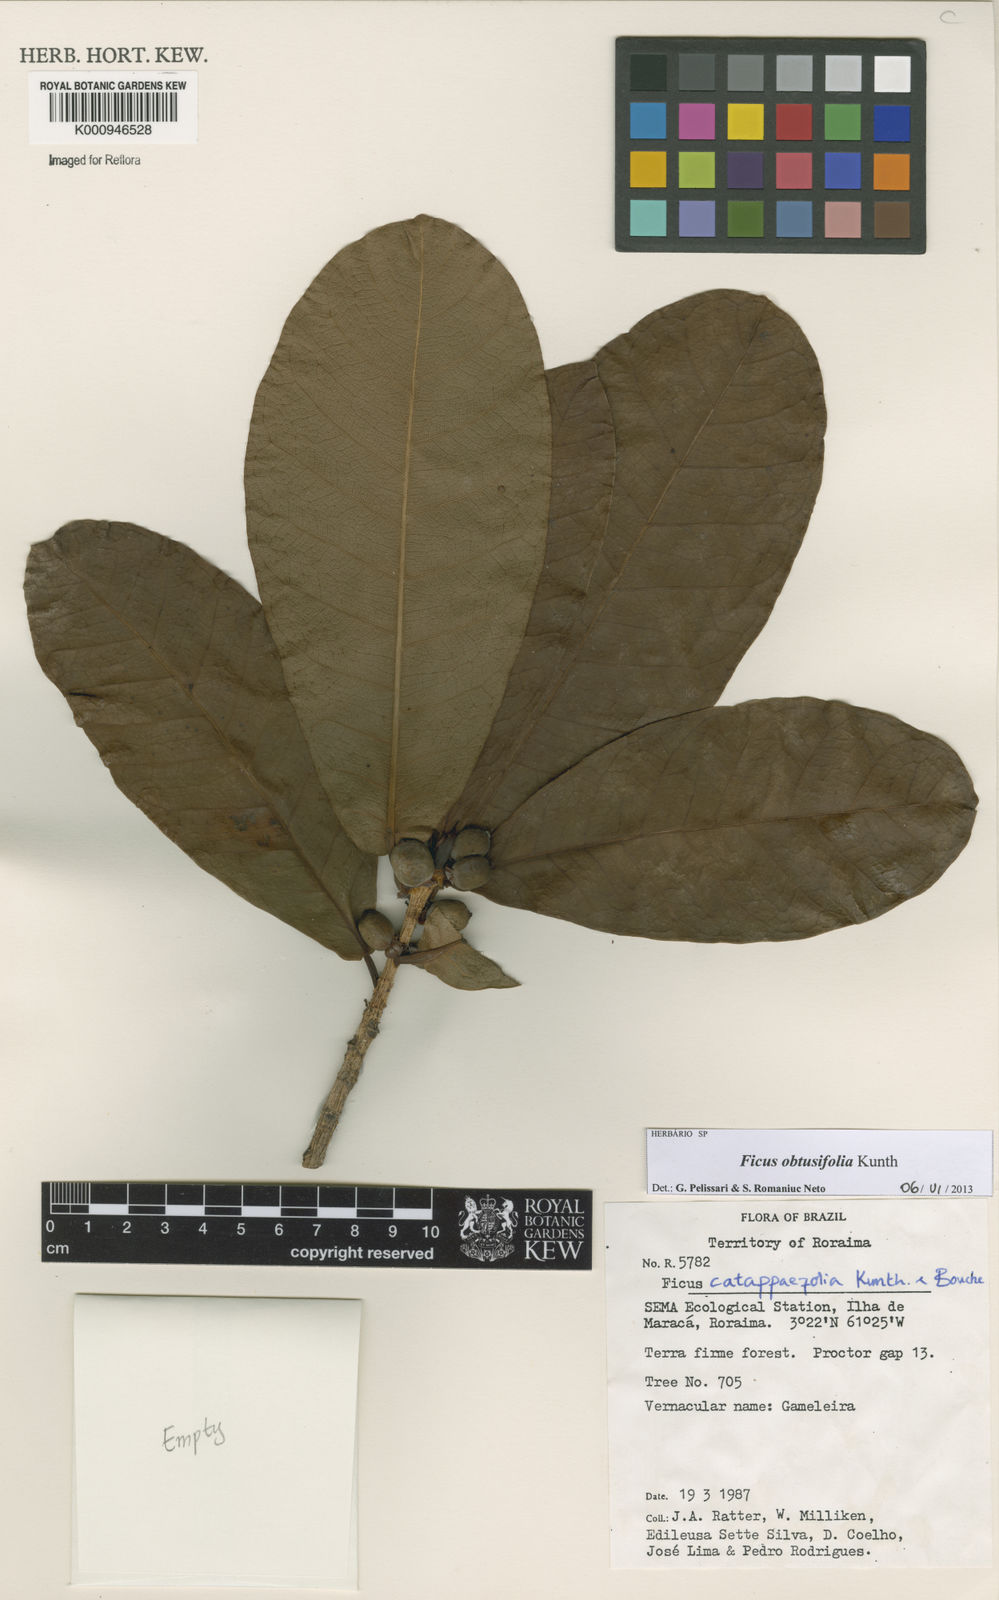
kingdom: Plantae
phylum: Tracheophyta
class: Magnoliopsida
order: Rosales
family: Moraceae
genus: Ficus
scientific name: Ficus obtusifolia
